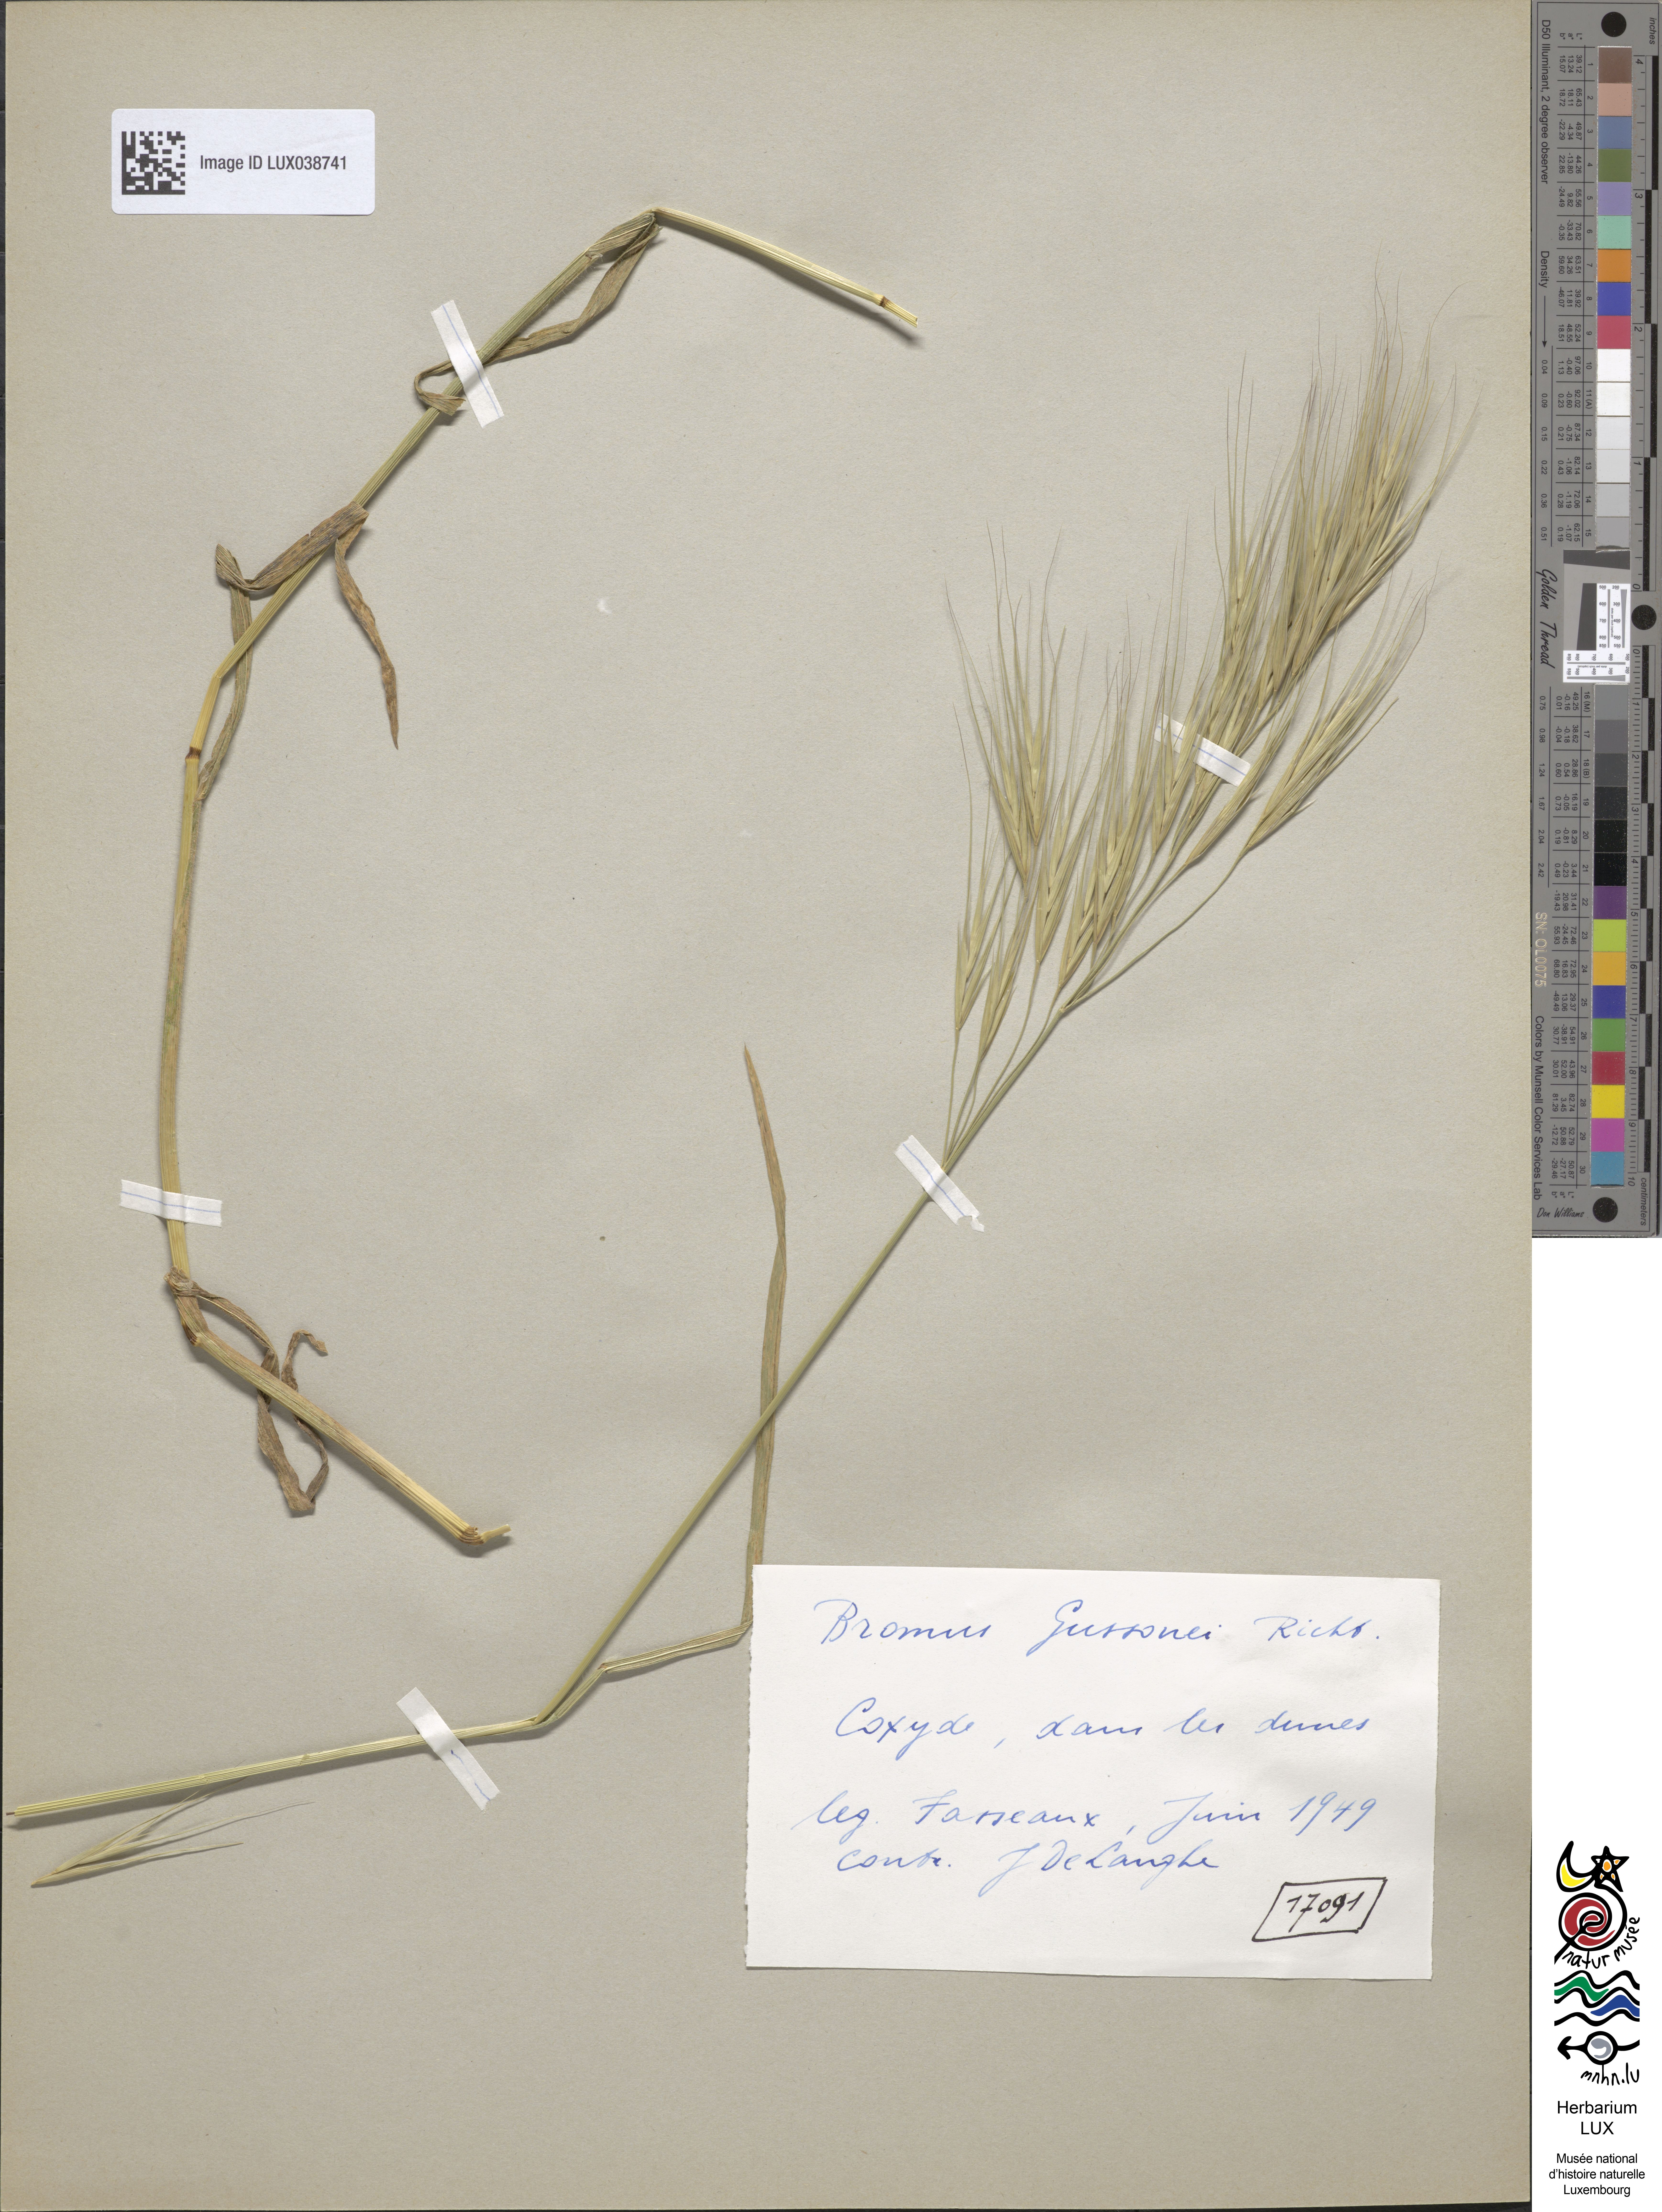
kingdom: Plantae
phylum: Tracheophyta
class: Liliopsida
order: Poales
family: Poaceae
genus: Bromus
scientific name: Bromus diandrus
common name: Ripgut brome
